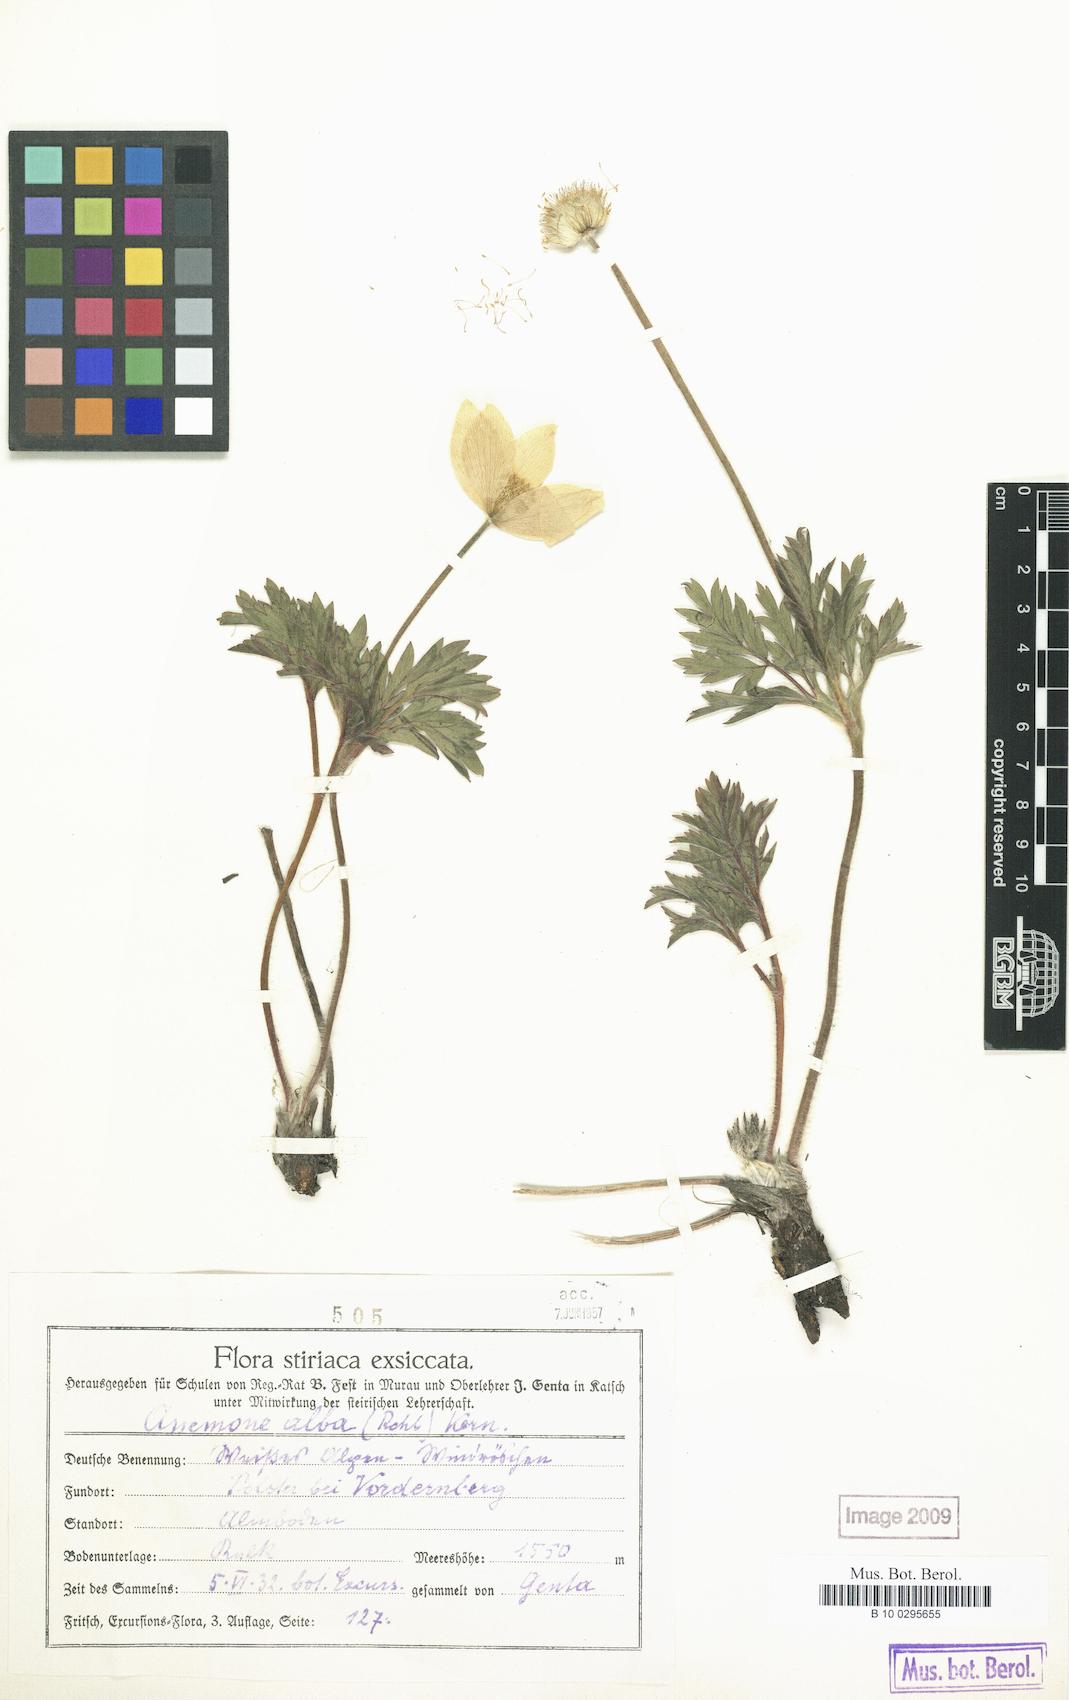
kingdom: Plantae
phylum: Tracheophyta
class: Magnoliopsida
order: Ranunculales
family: Ranunculaceae
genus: Pulsatilla
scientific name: Pulsatilla alpina
